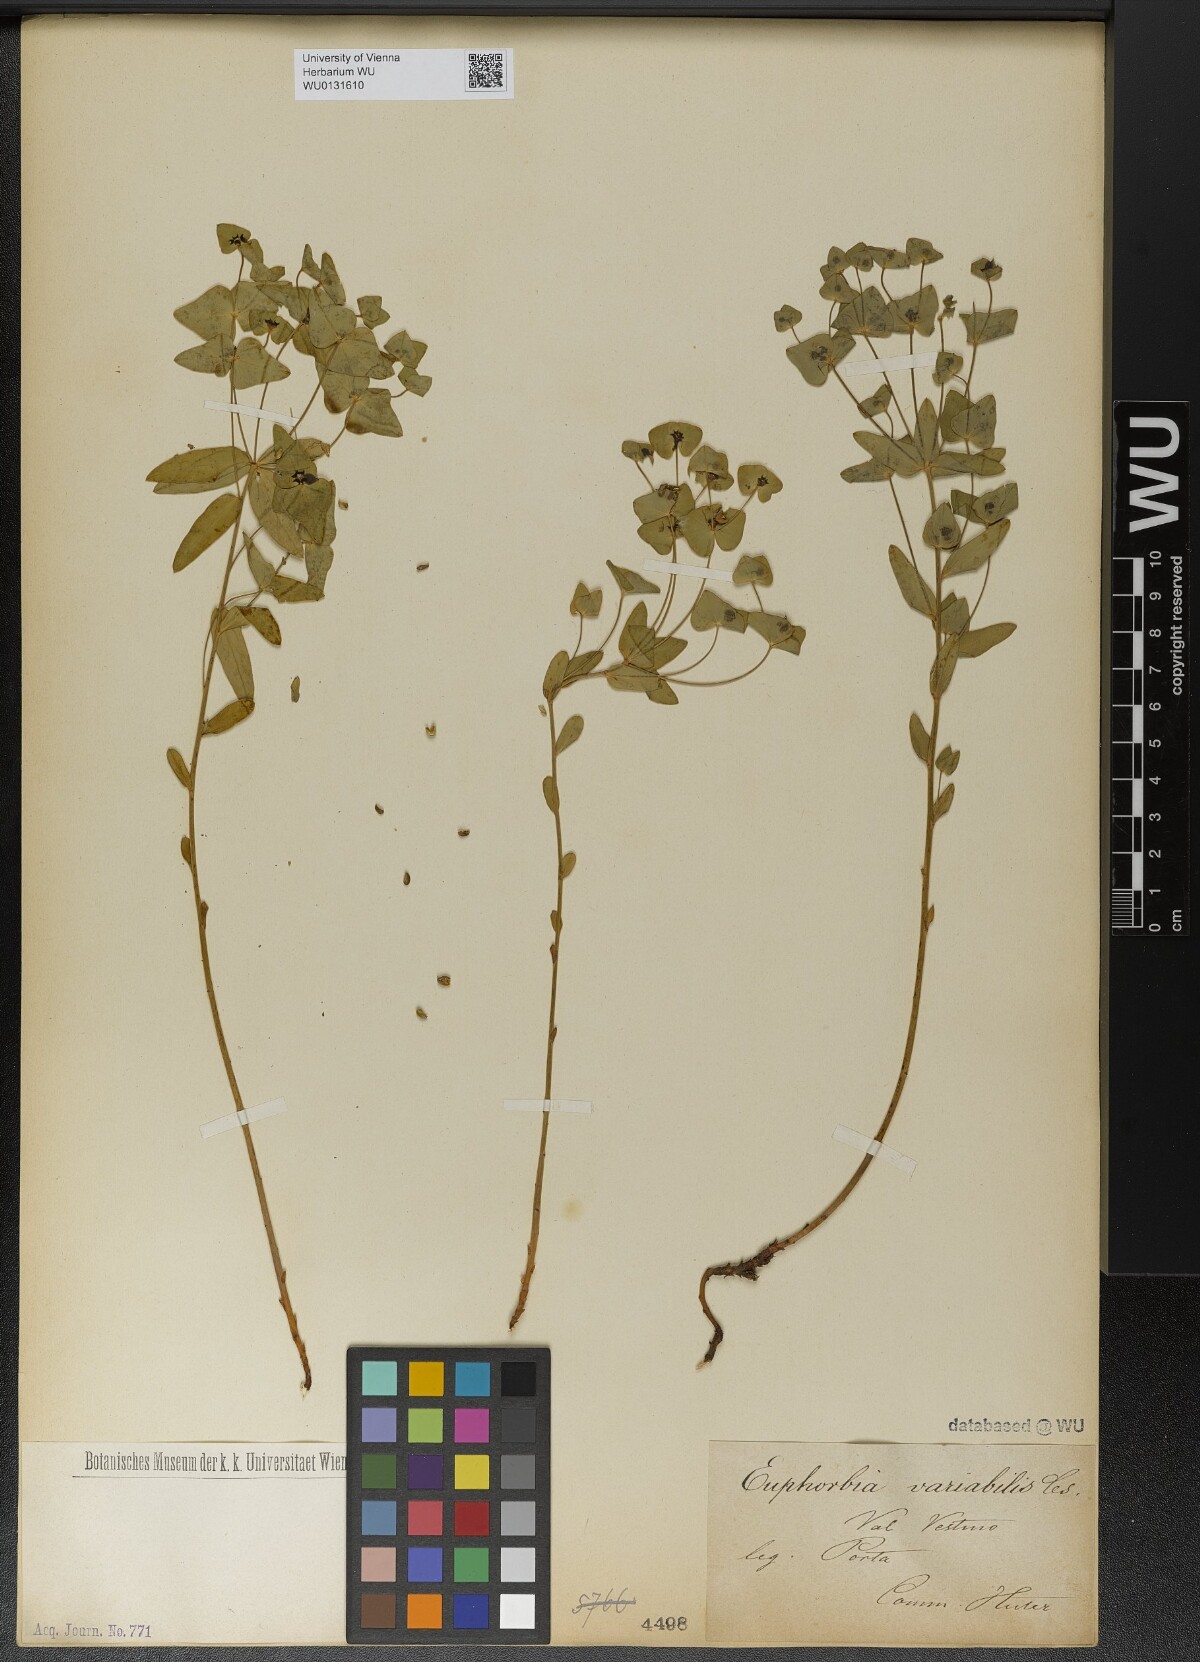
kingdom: Plantae
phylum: Tracheophyta
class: Magnoliopsida
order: Malpighiales
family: Euphorbiaceae
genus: Euphorbia
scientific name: Euphorbia variabilis
